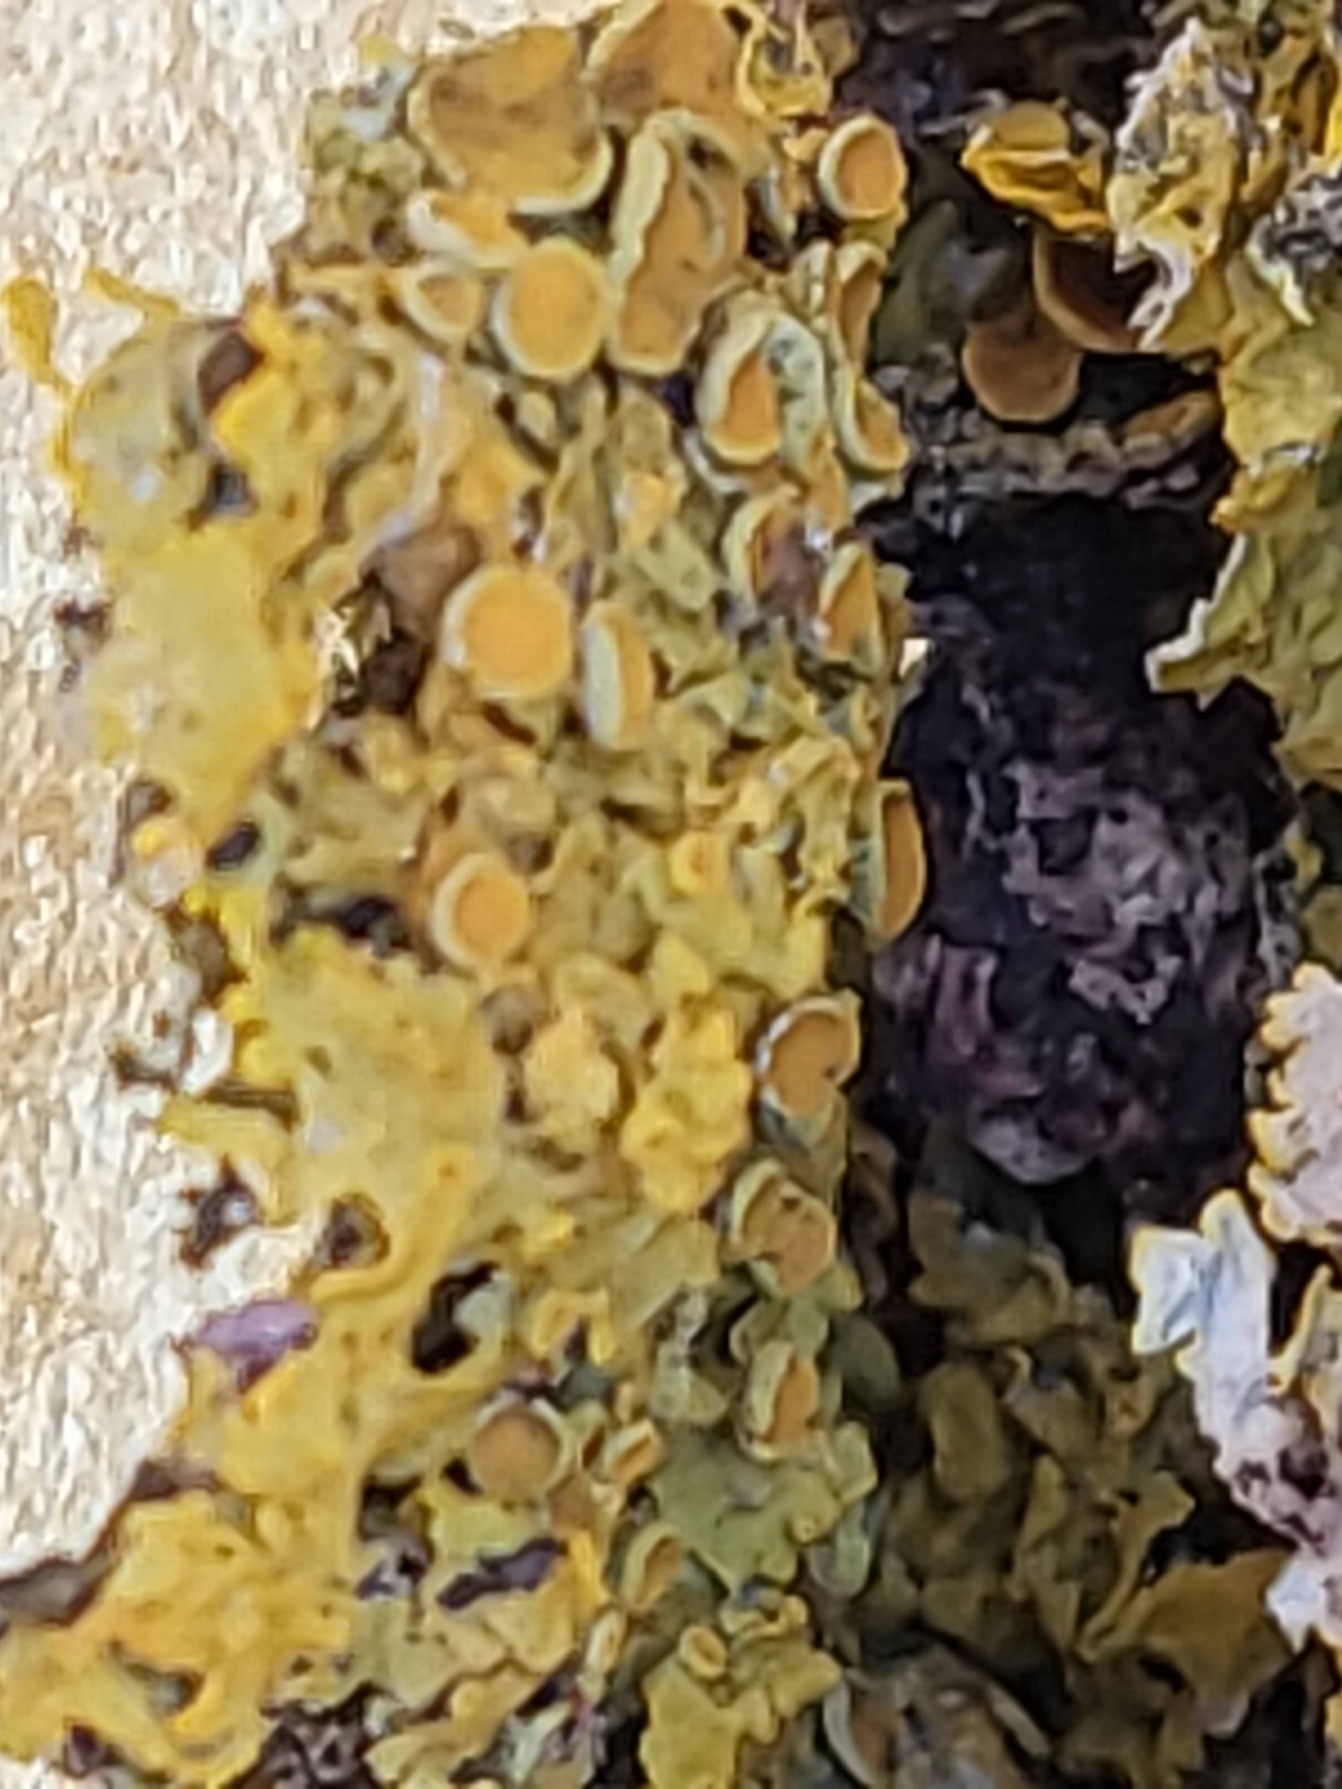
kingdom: Fungi
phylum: Ascomycota
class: Lecanoromycetes
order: Teloschistales
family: Teloschistaceae
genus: Xanthoria
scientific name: Xanthoria parietina
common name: Almindelig væggelav
